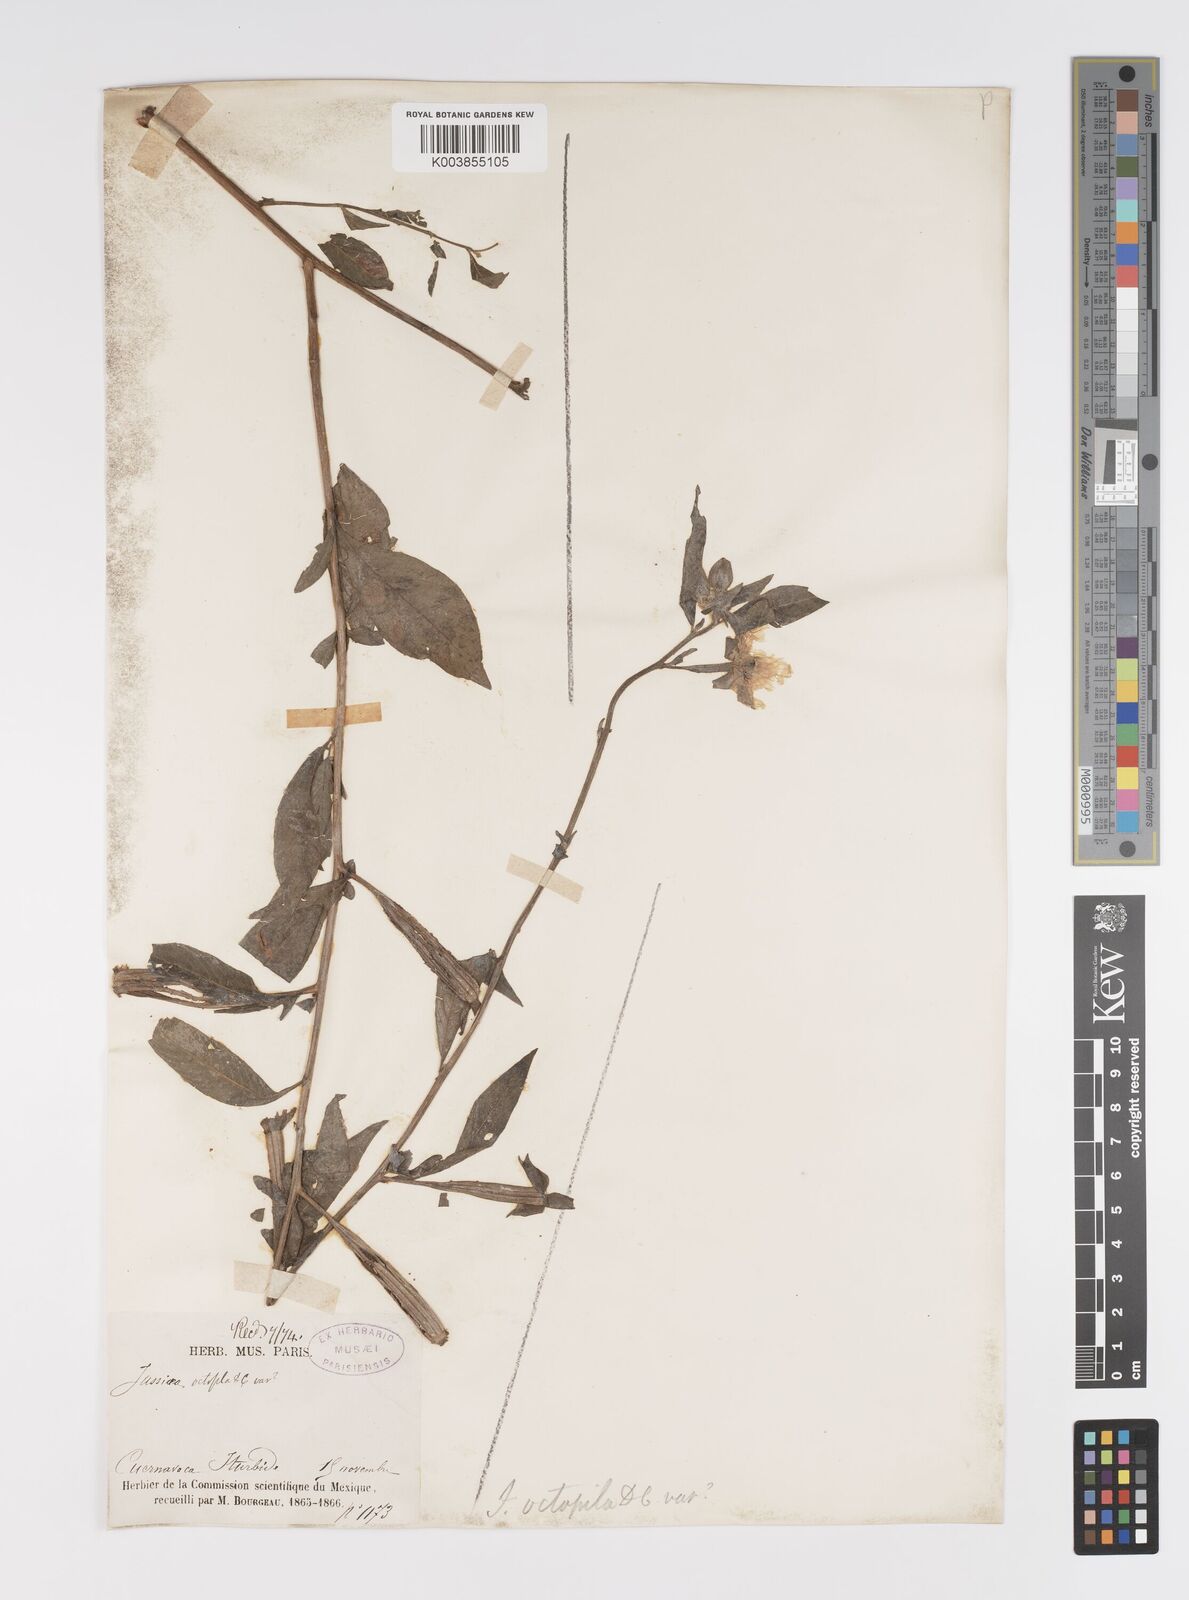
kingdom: Plantae
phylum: Tracheophyta
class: Magnoliopsida
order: Myrtales
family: Onagraceae
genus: Ludwigia
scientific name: Ludwigia octovalvis
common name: Water-primrose
